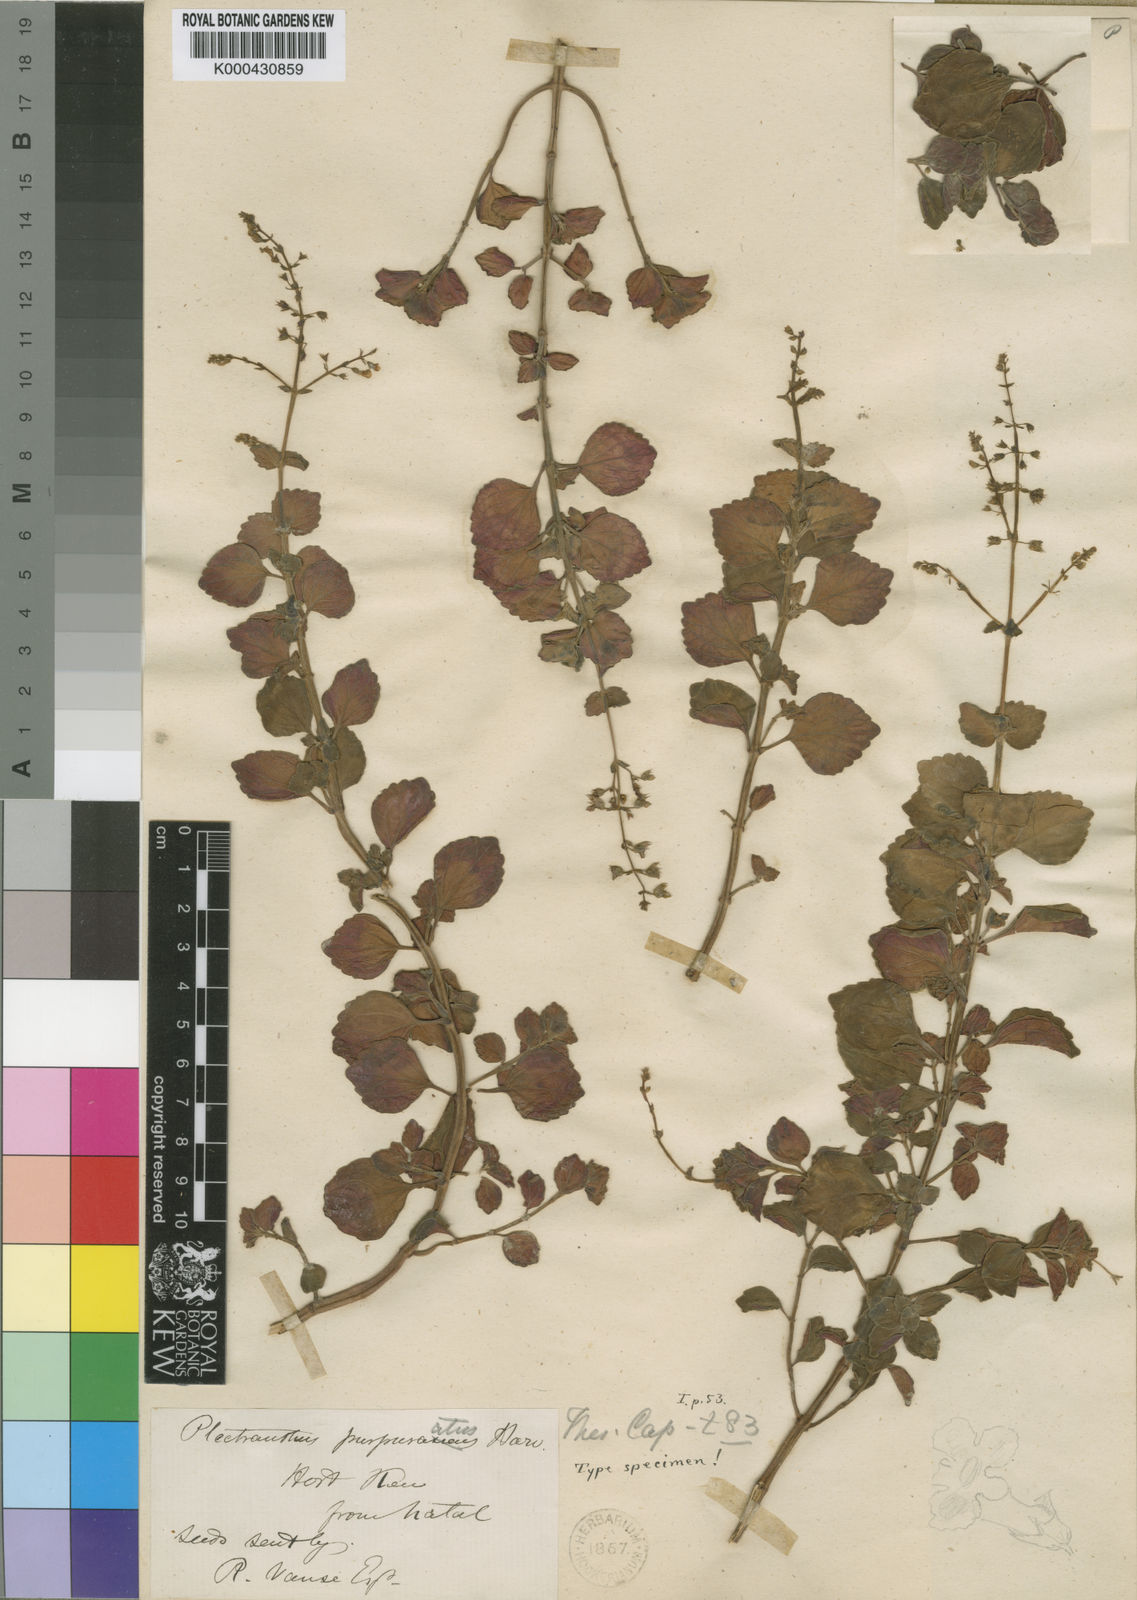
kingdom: Plantae
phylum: Tracheophyta
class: Magnoliopsida
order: Lamiales
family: Lamiaceae
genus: Plectranthus
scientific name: Plectranthus purpuratus
